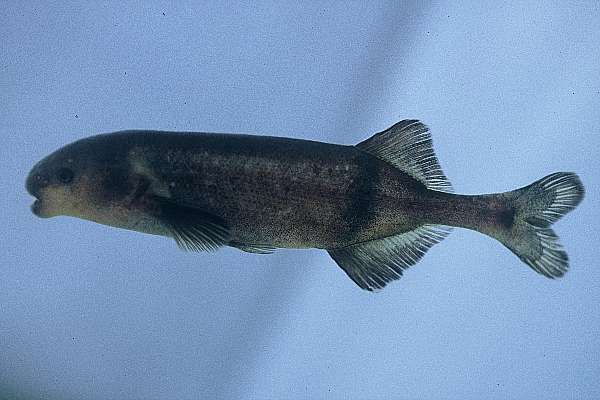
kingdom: Animalia
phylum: Chordata
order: Osteoglossiformes
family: Mormyridae
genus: Hippopotamyrus
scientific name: Hippopotamyrus ansorgii
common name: Slender stonebasher
